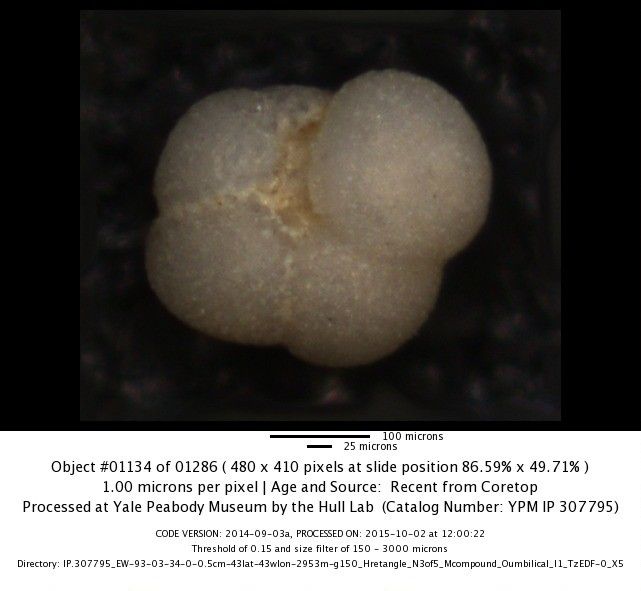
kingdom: Chromista
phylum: Foraminifera
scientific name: Foraminifera
